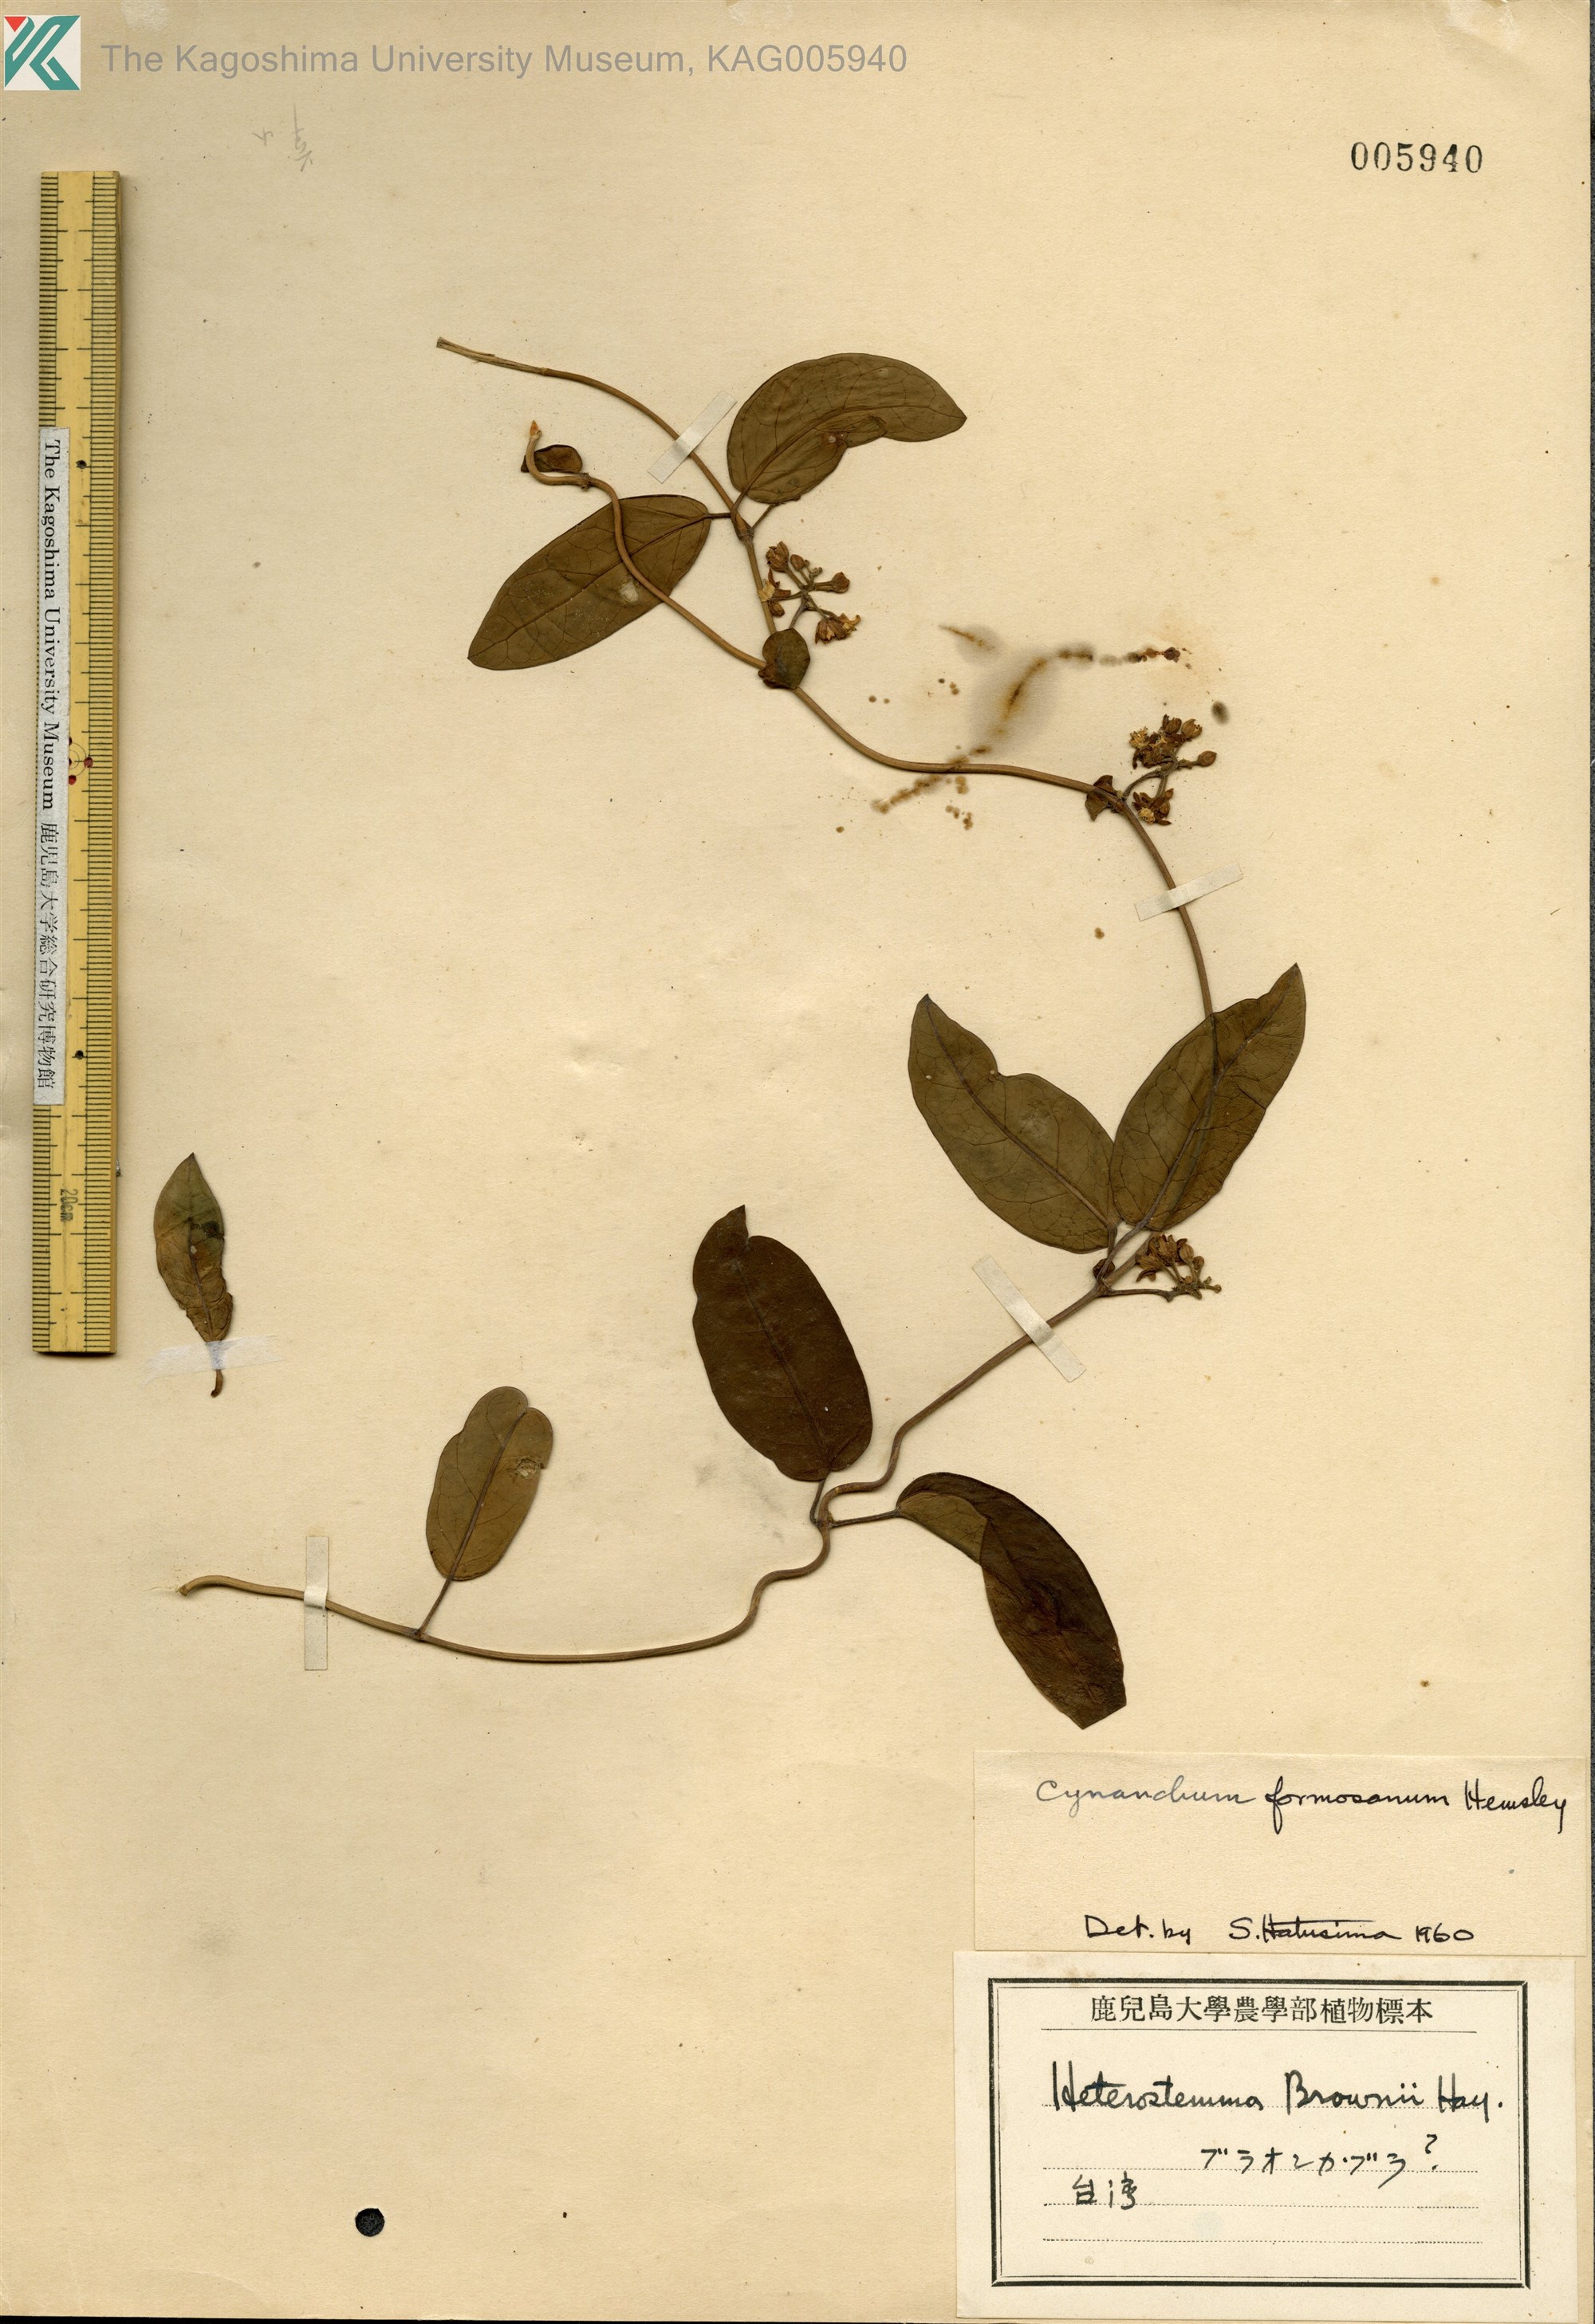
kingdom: Plantae
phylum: Tracheophyta
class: Magnoliopsida
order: Gentianales
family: Apocynaceae
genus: Cynanchum
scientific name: Cynanchum ovalifolium
